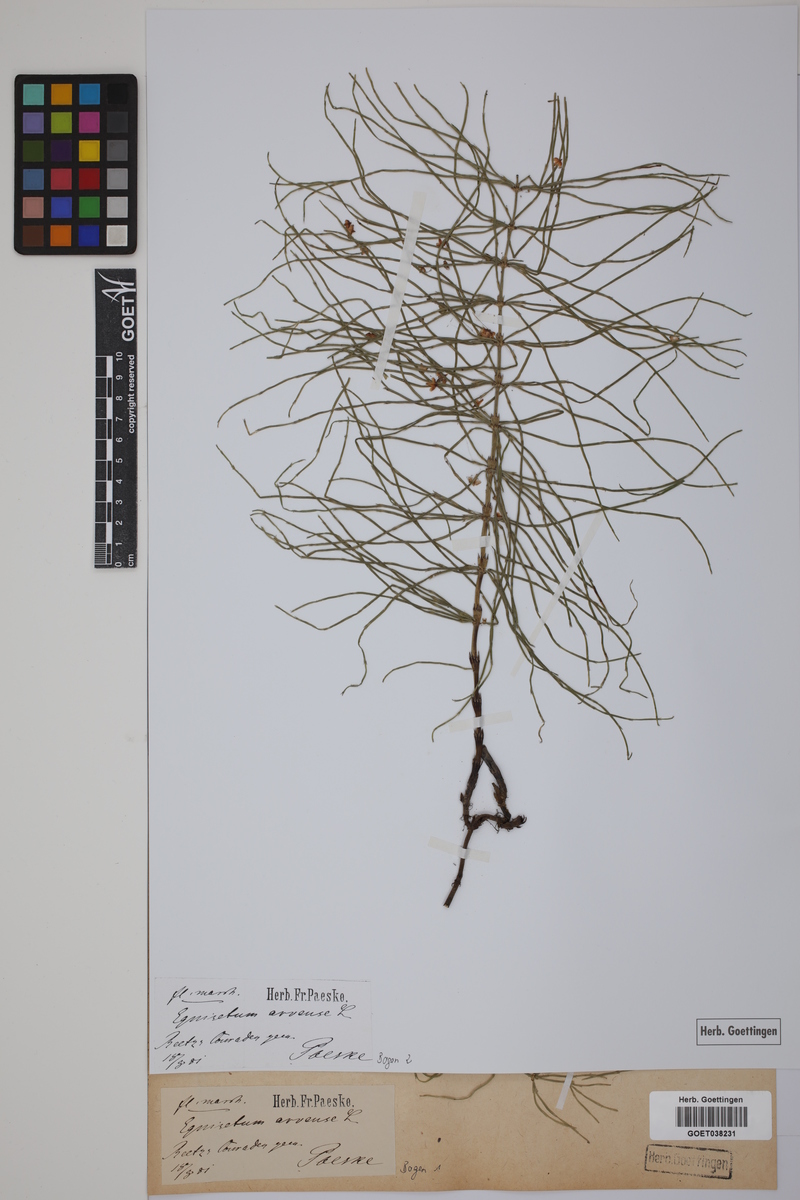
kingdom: Plantae
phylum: Tracheophyta
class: Polypodiopsida
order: Equisetales
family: Equisetaceae
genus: Equisetum
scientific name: Equisetum arvense
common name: Field horsetail
